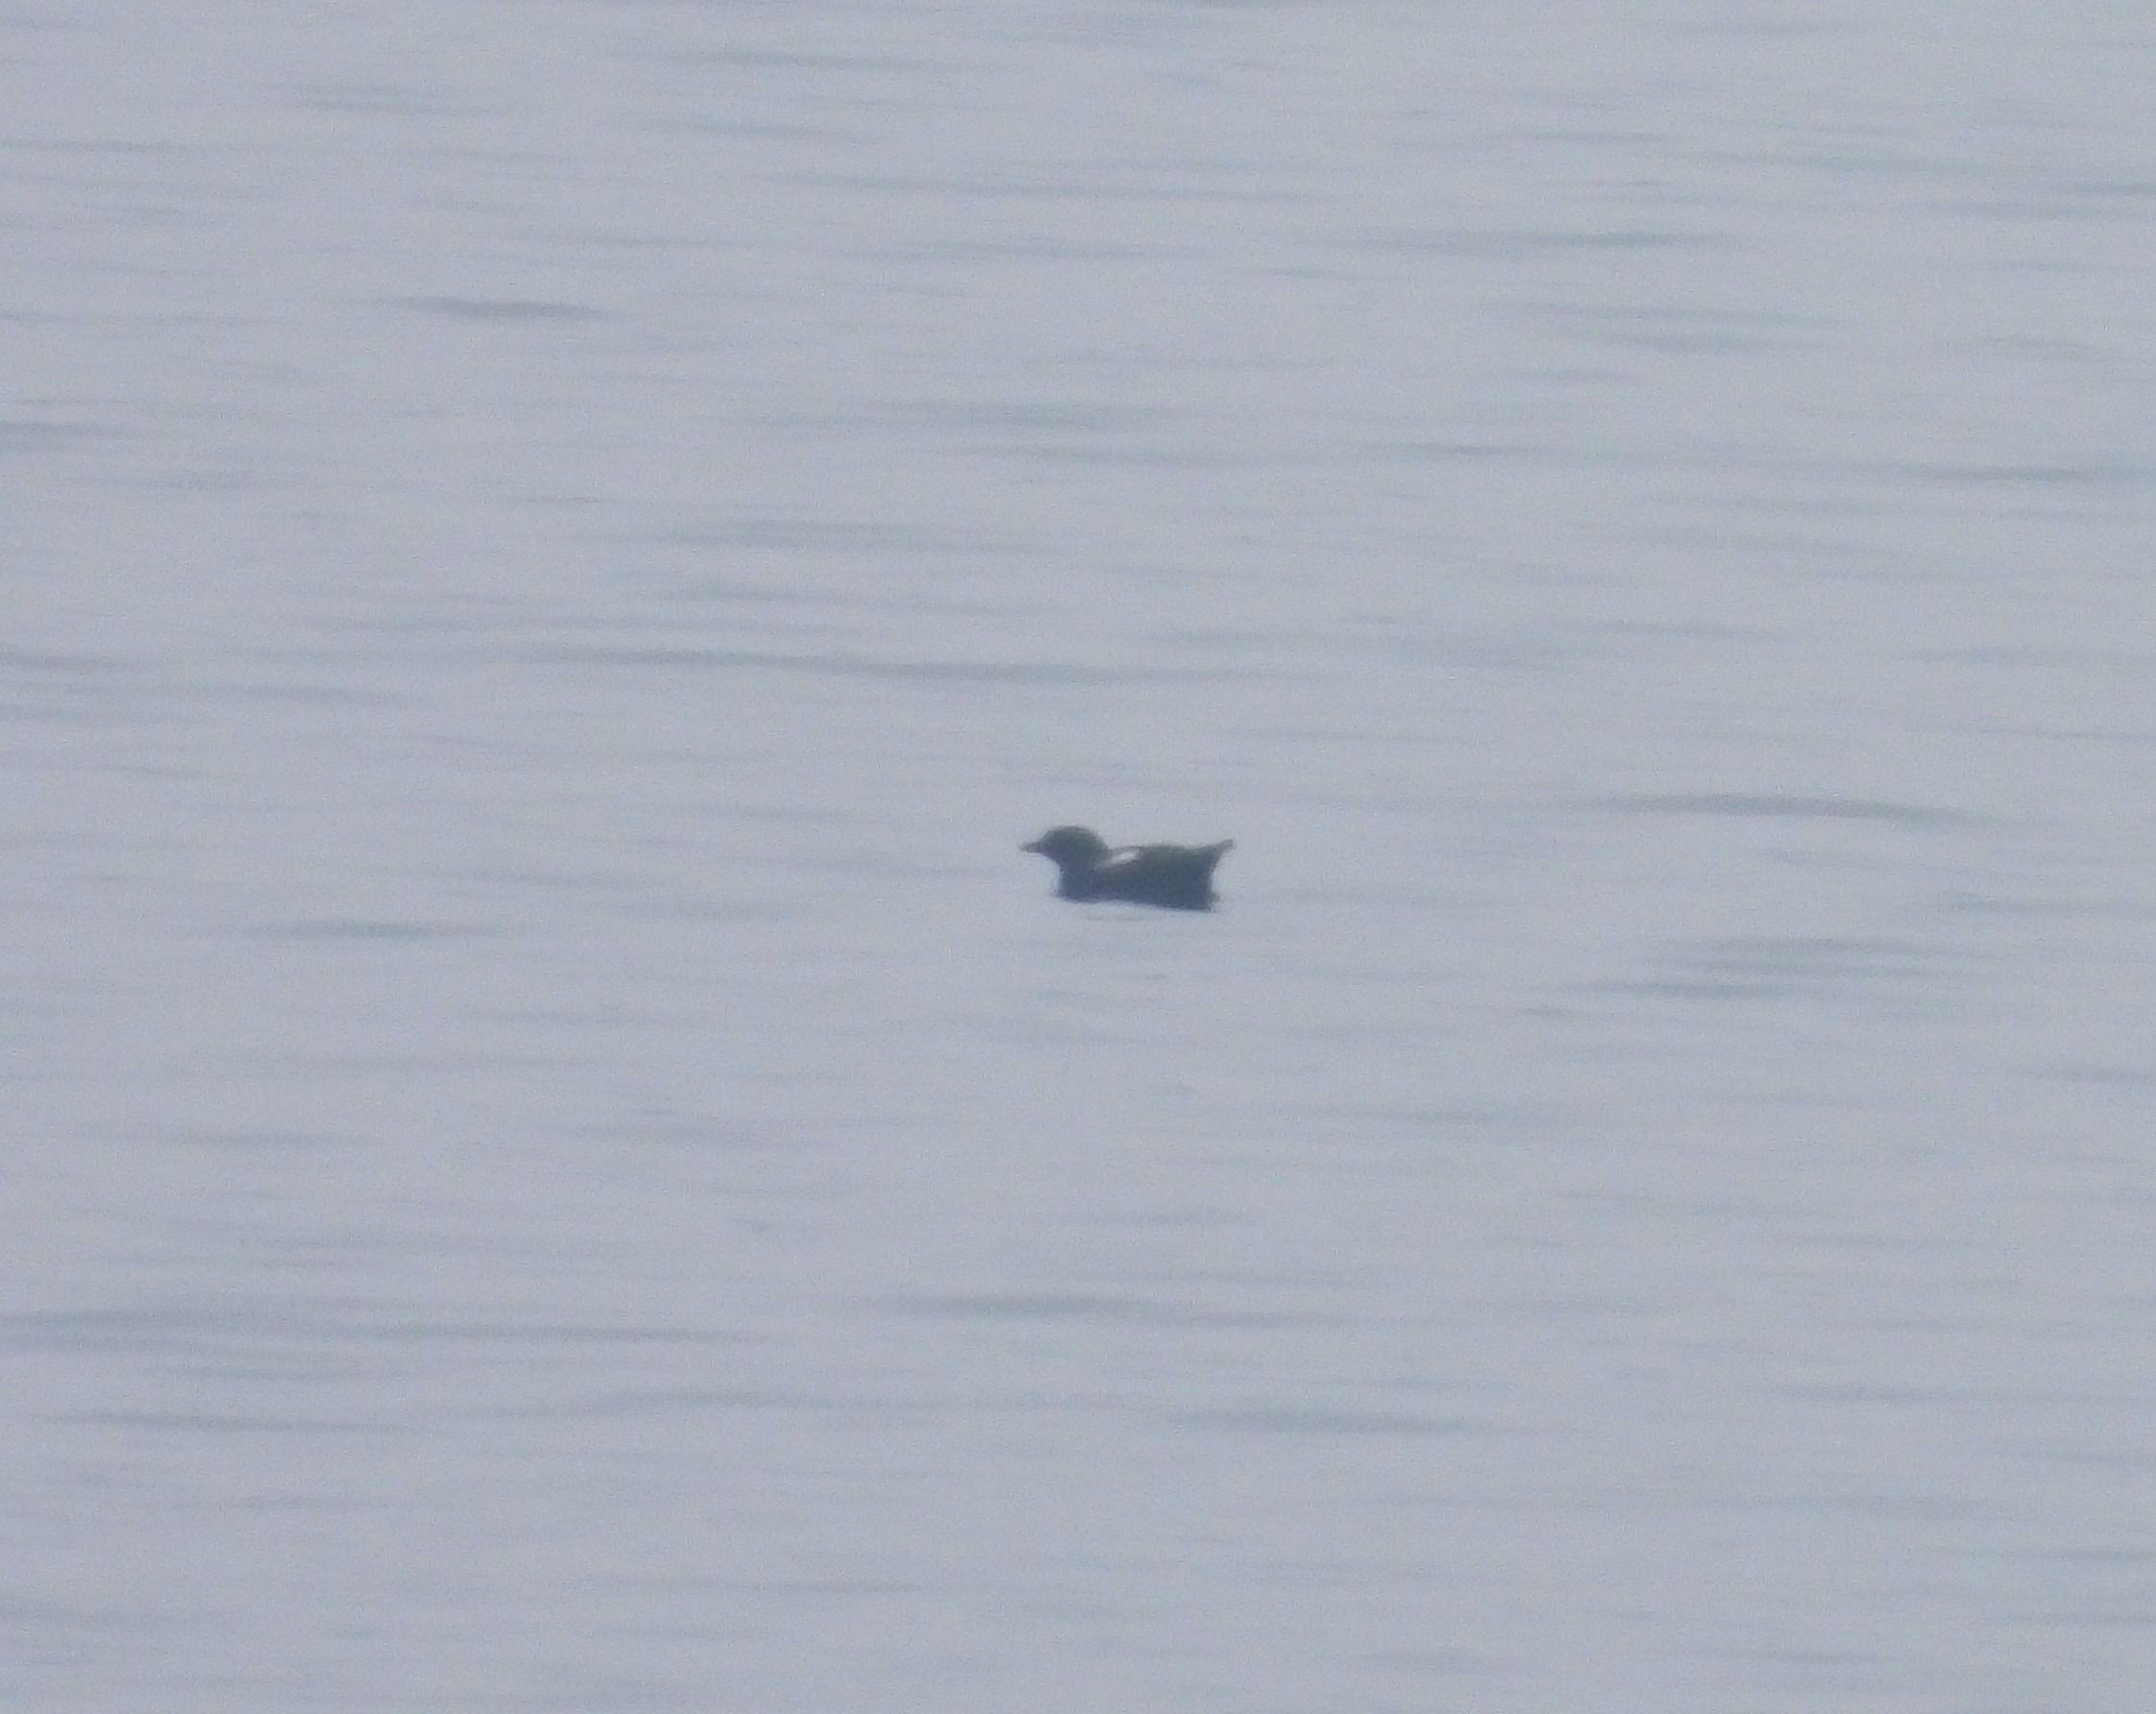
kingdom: Animalia
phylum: Chordata
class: Aves
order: Charadriiformes
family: Alcidae
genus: Cepphus
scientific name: Cepphus grylle
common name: Tejst
